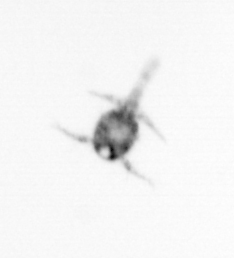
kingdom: Animalia
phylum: Arthropoda
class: Copepoda
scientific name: Copepoda
